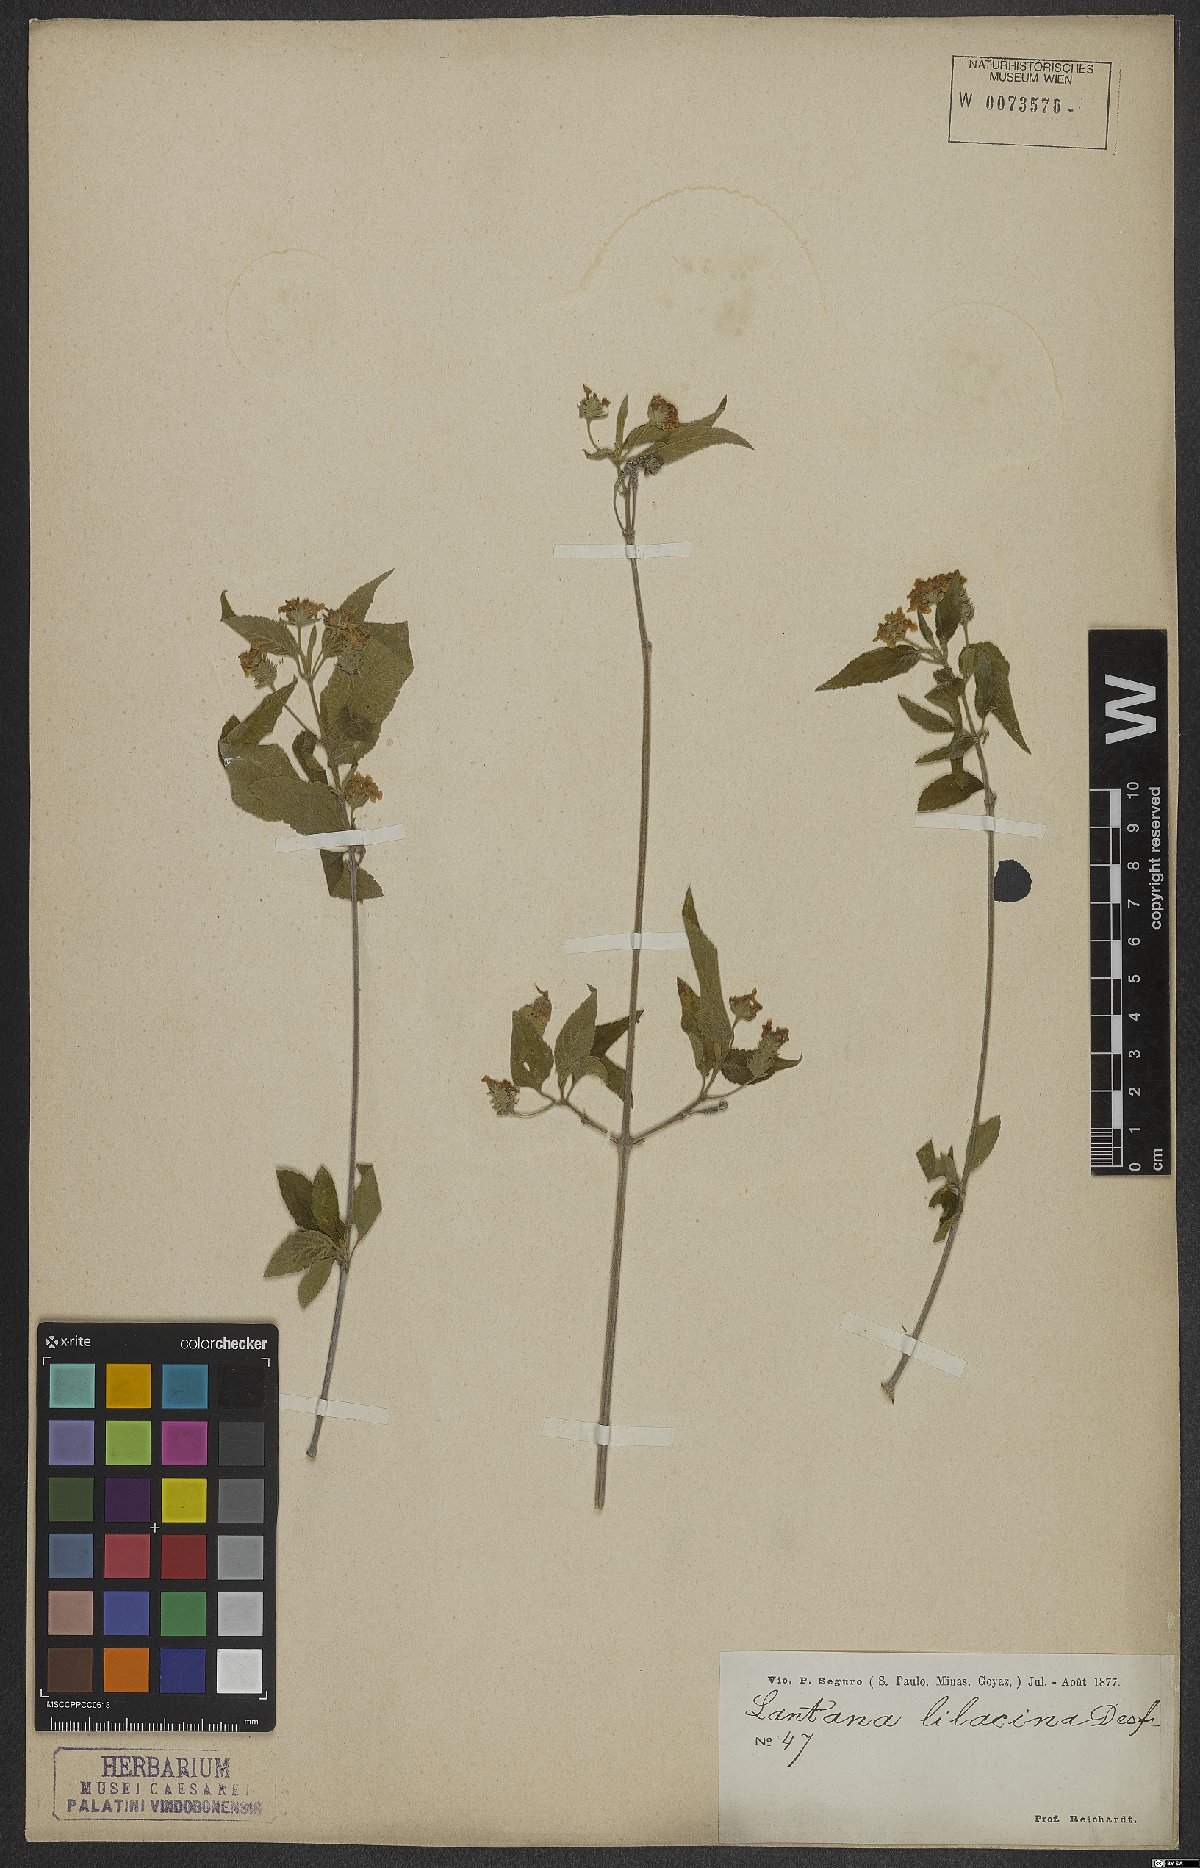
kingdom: Plantae
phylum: Tracheophyta
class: Magnoliopsida
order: Lamiales
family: Verbenaceae
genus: Lantana
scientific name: Lantana fucata
